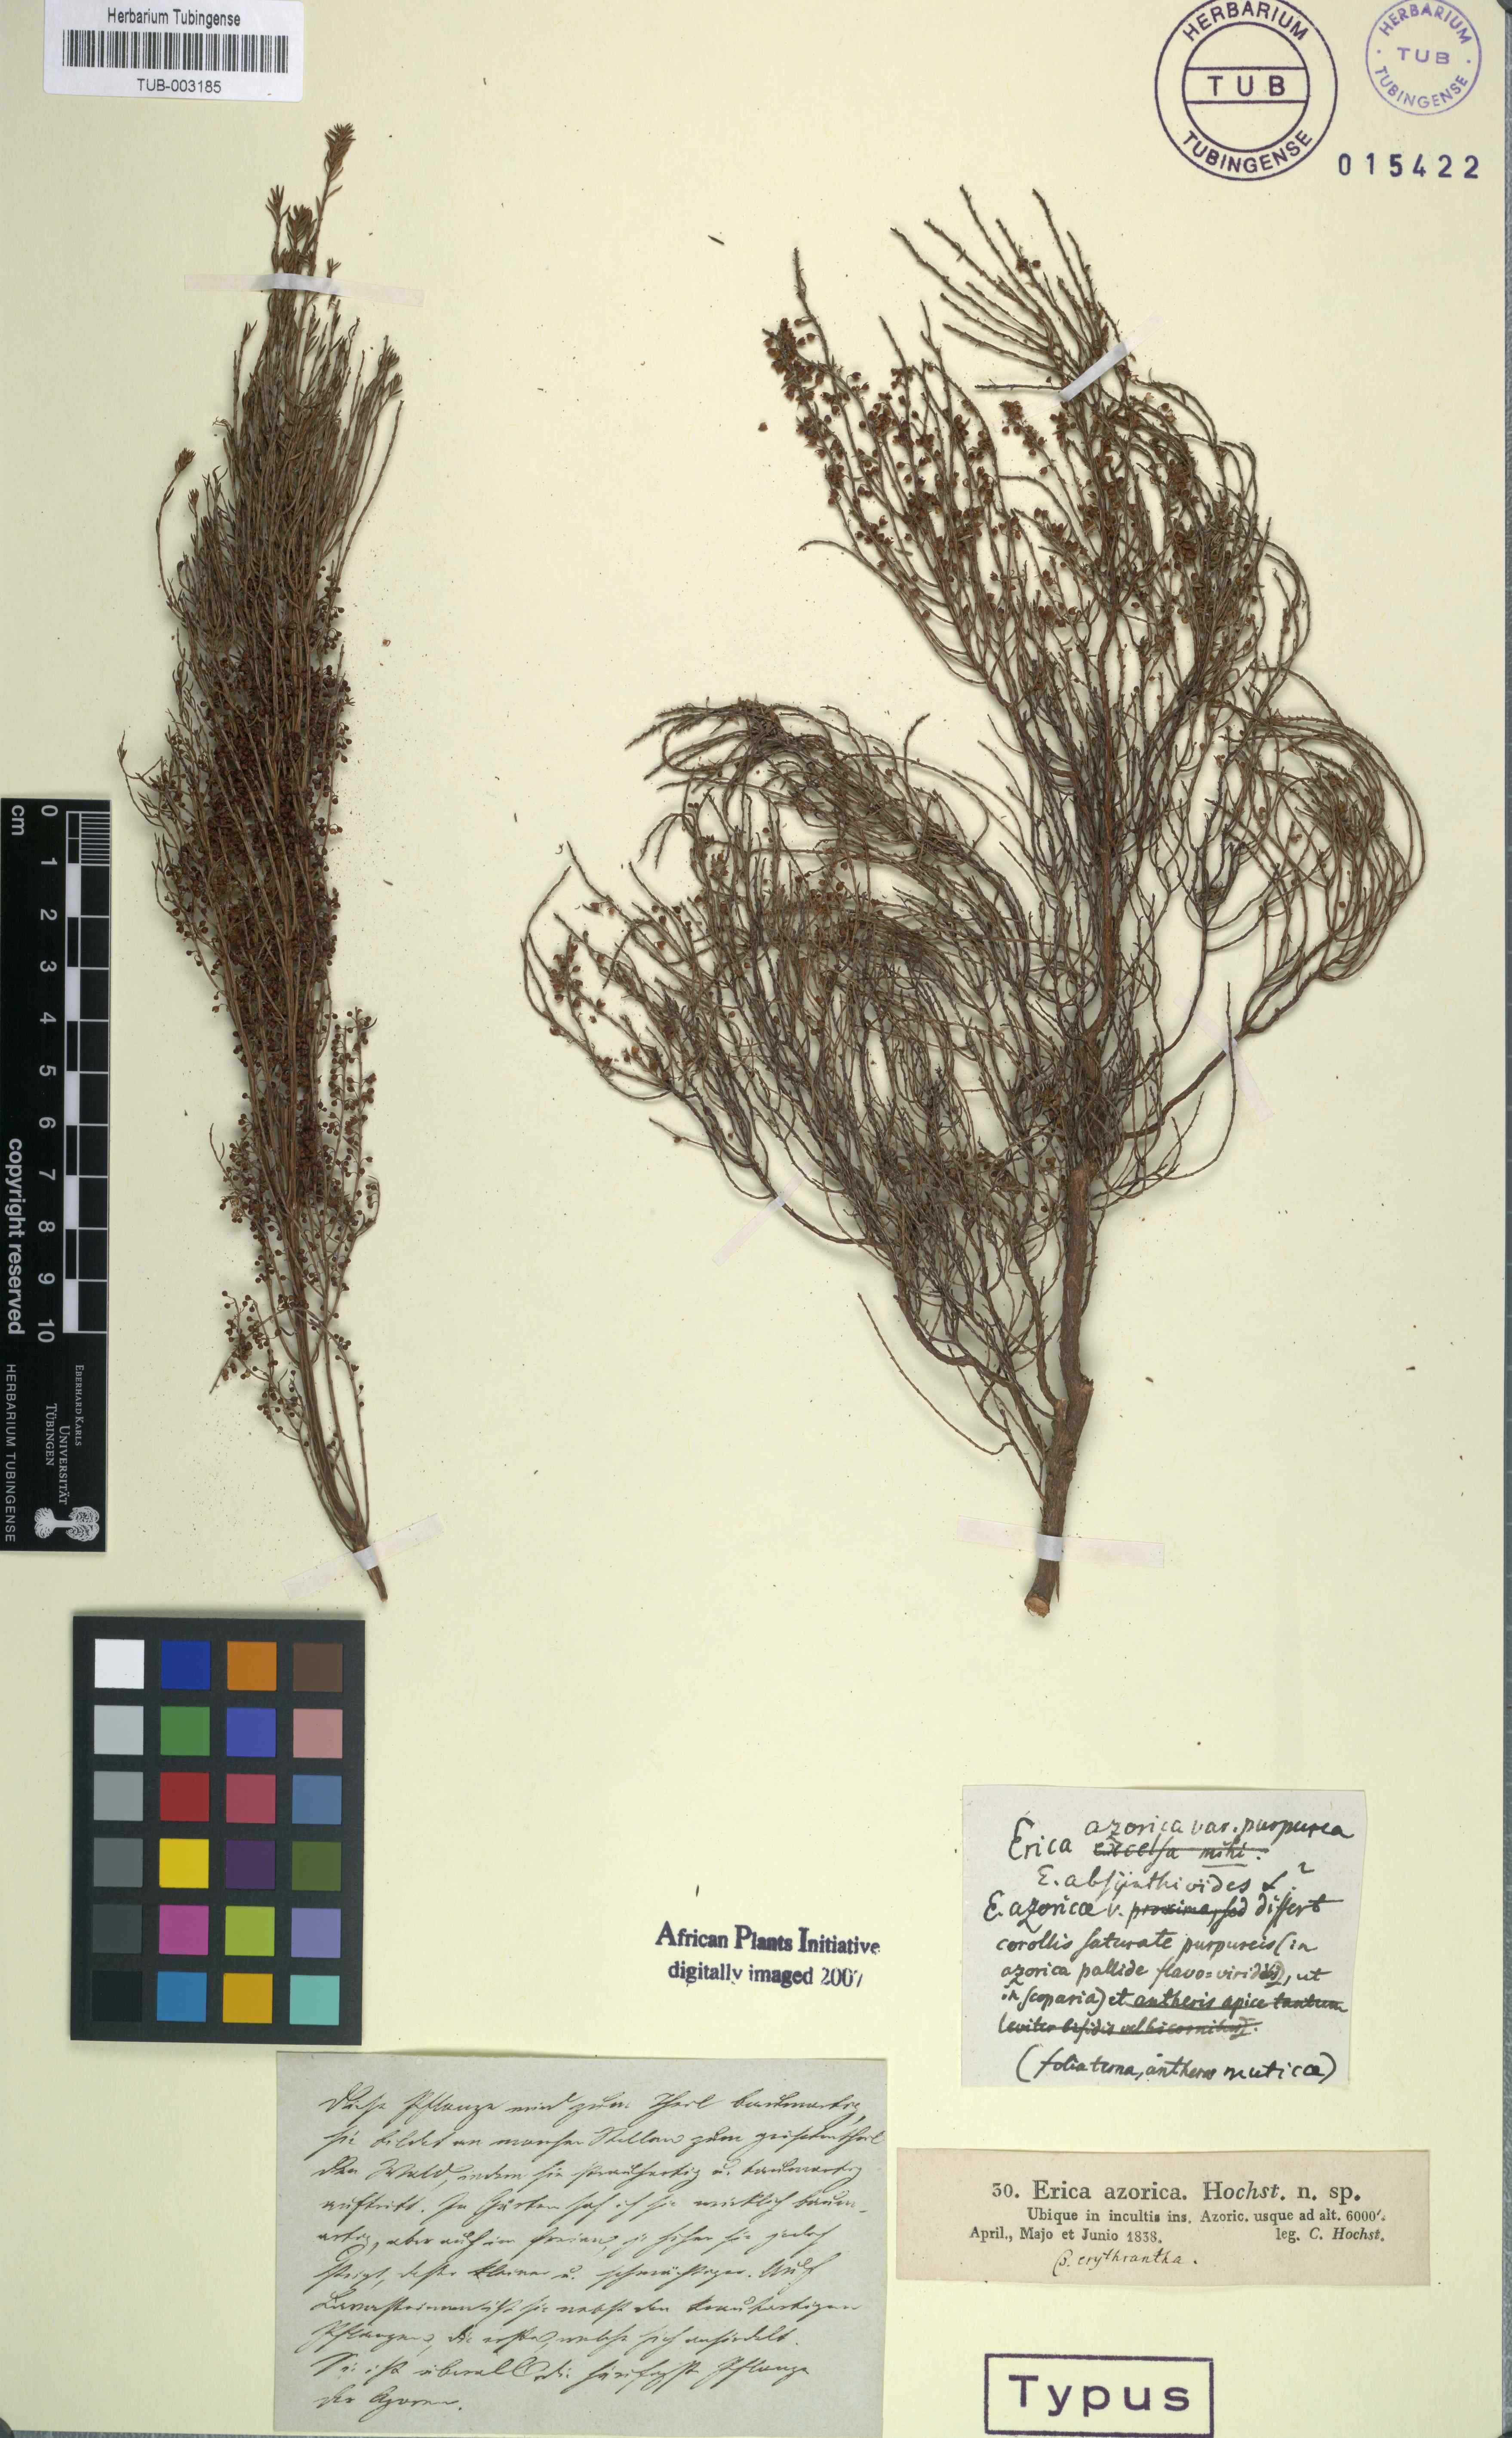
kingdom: Plantae
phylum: Tracheophyta
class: Magnoliopsida
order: Ericales
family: Ericaceae
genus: Erica
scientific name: Erica azorica
